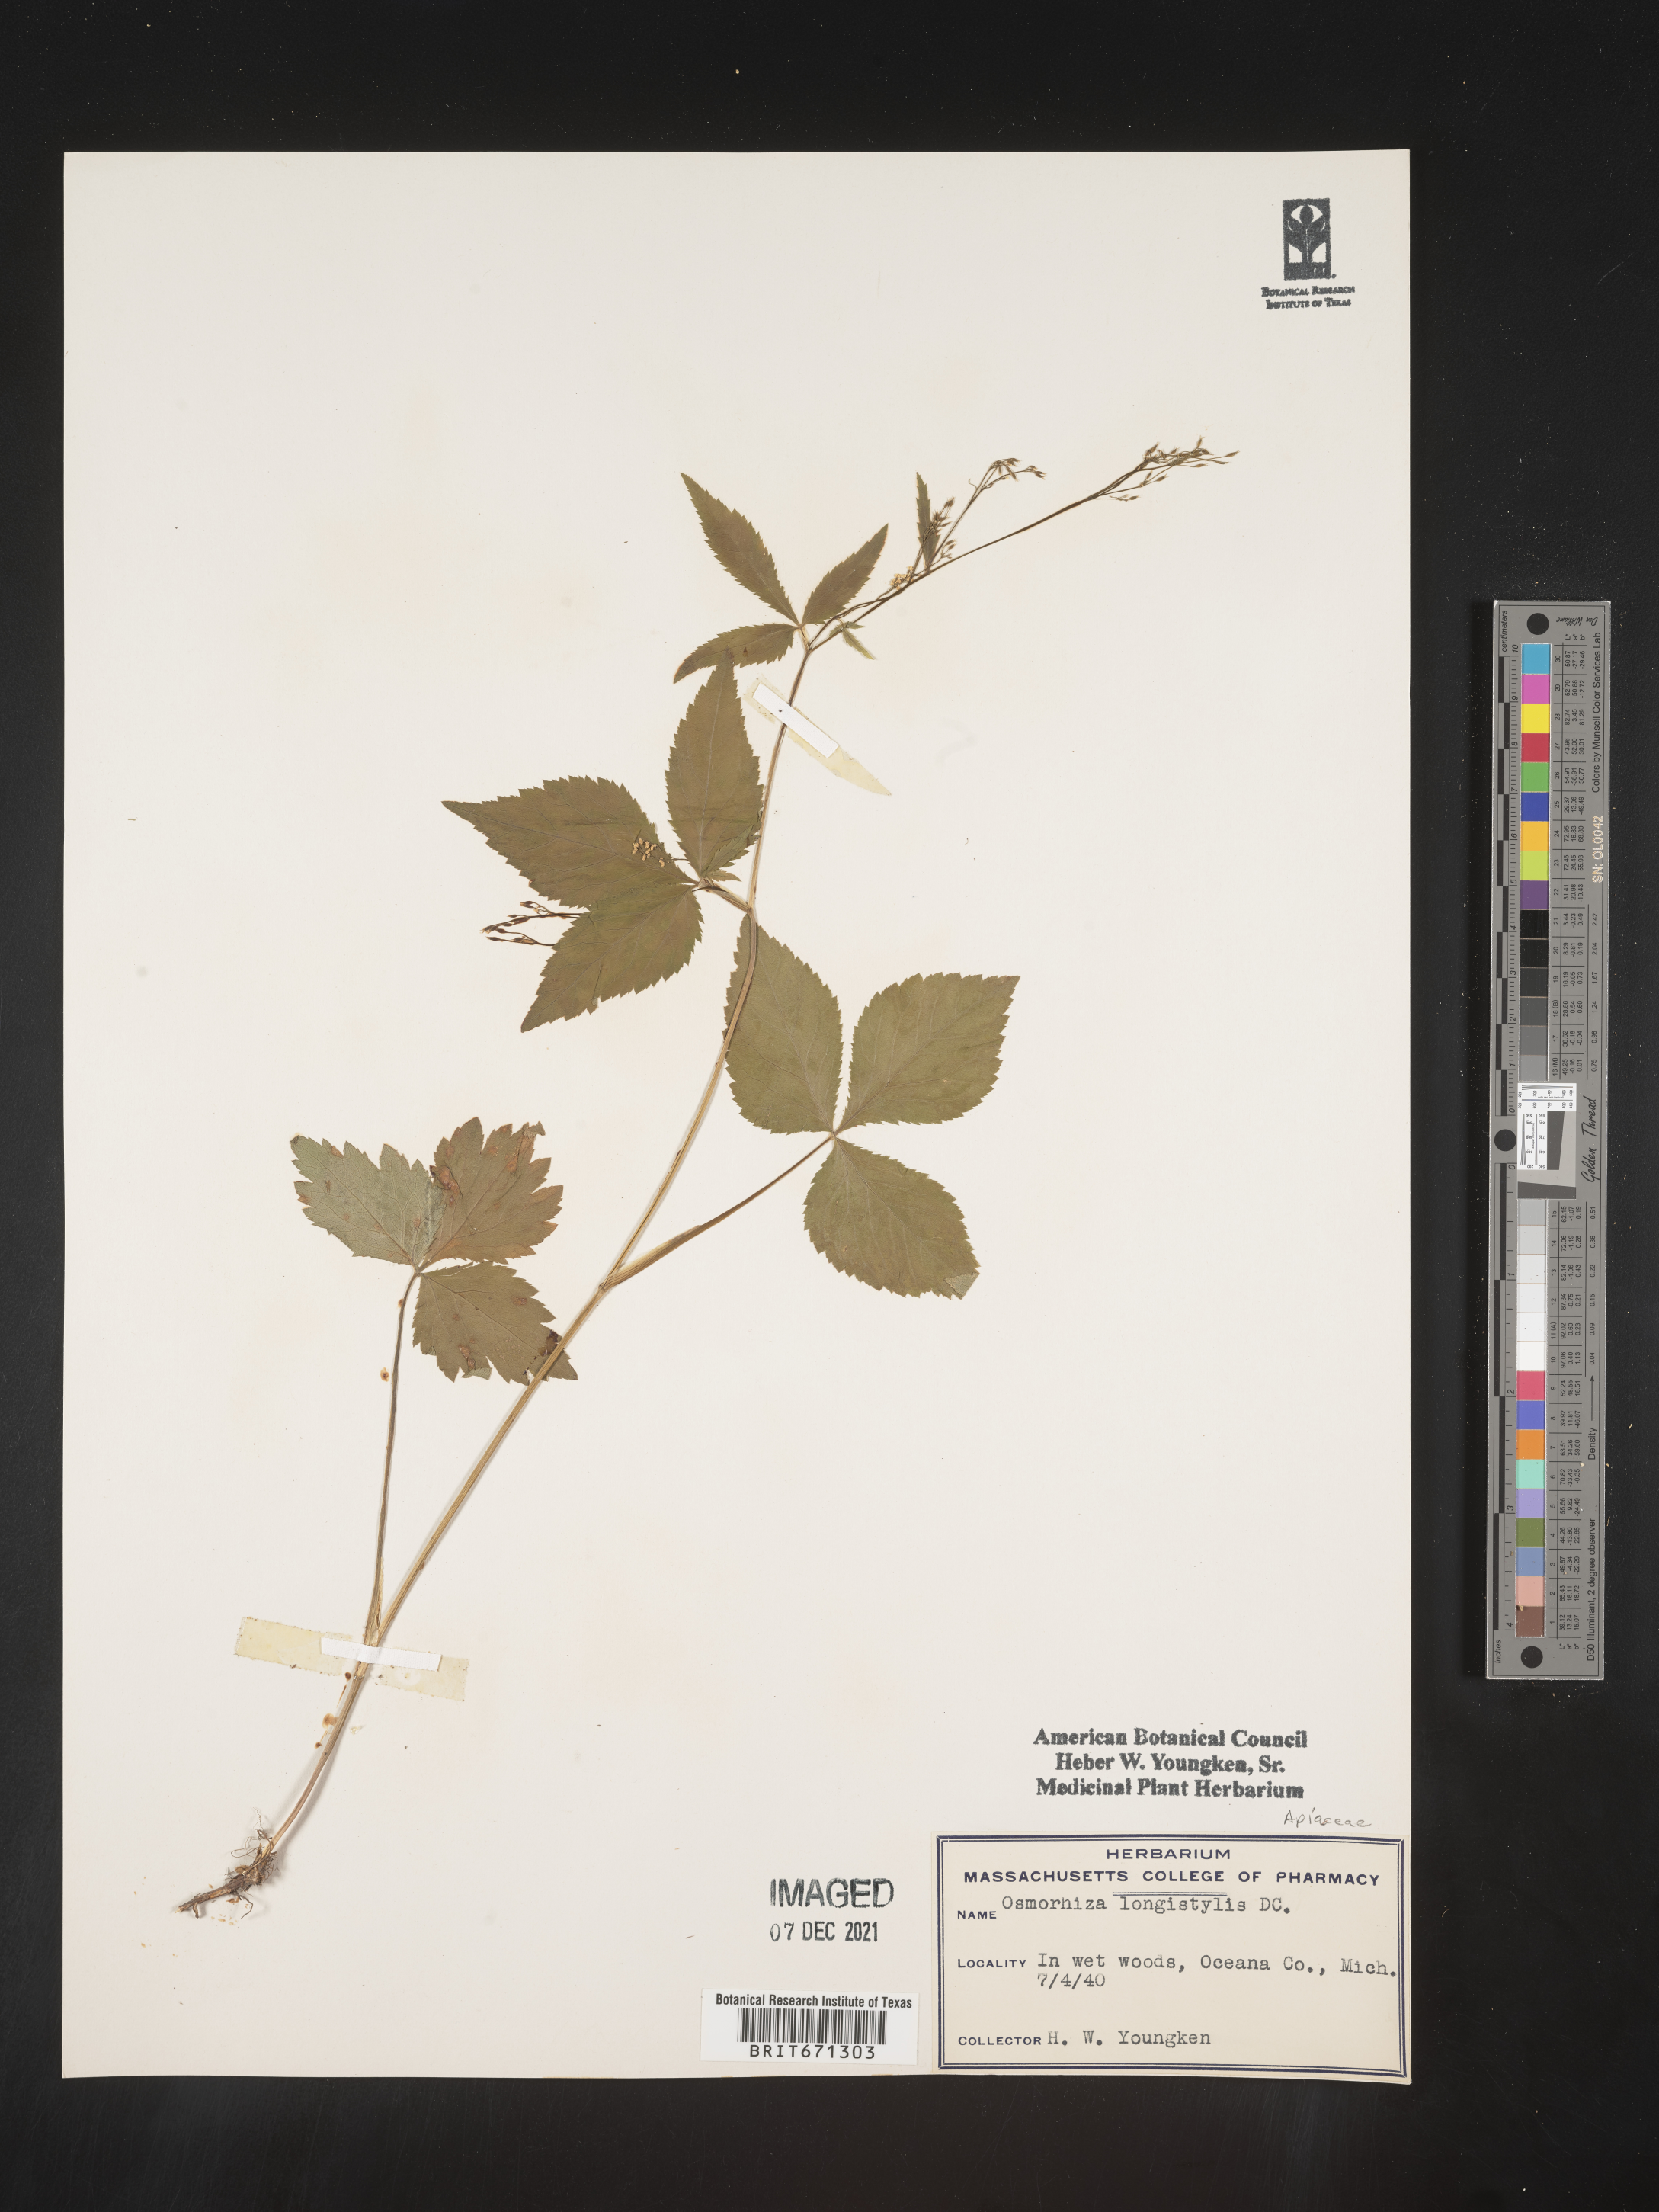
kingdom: Plantae
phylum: Tracheophyta
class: Magnoliopsida
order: Apiales
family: Apiaceae
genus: Osmorhiza
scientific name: Osmorhiza longistylis
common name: Smooth sweet cicely
